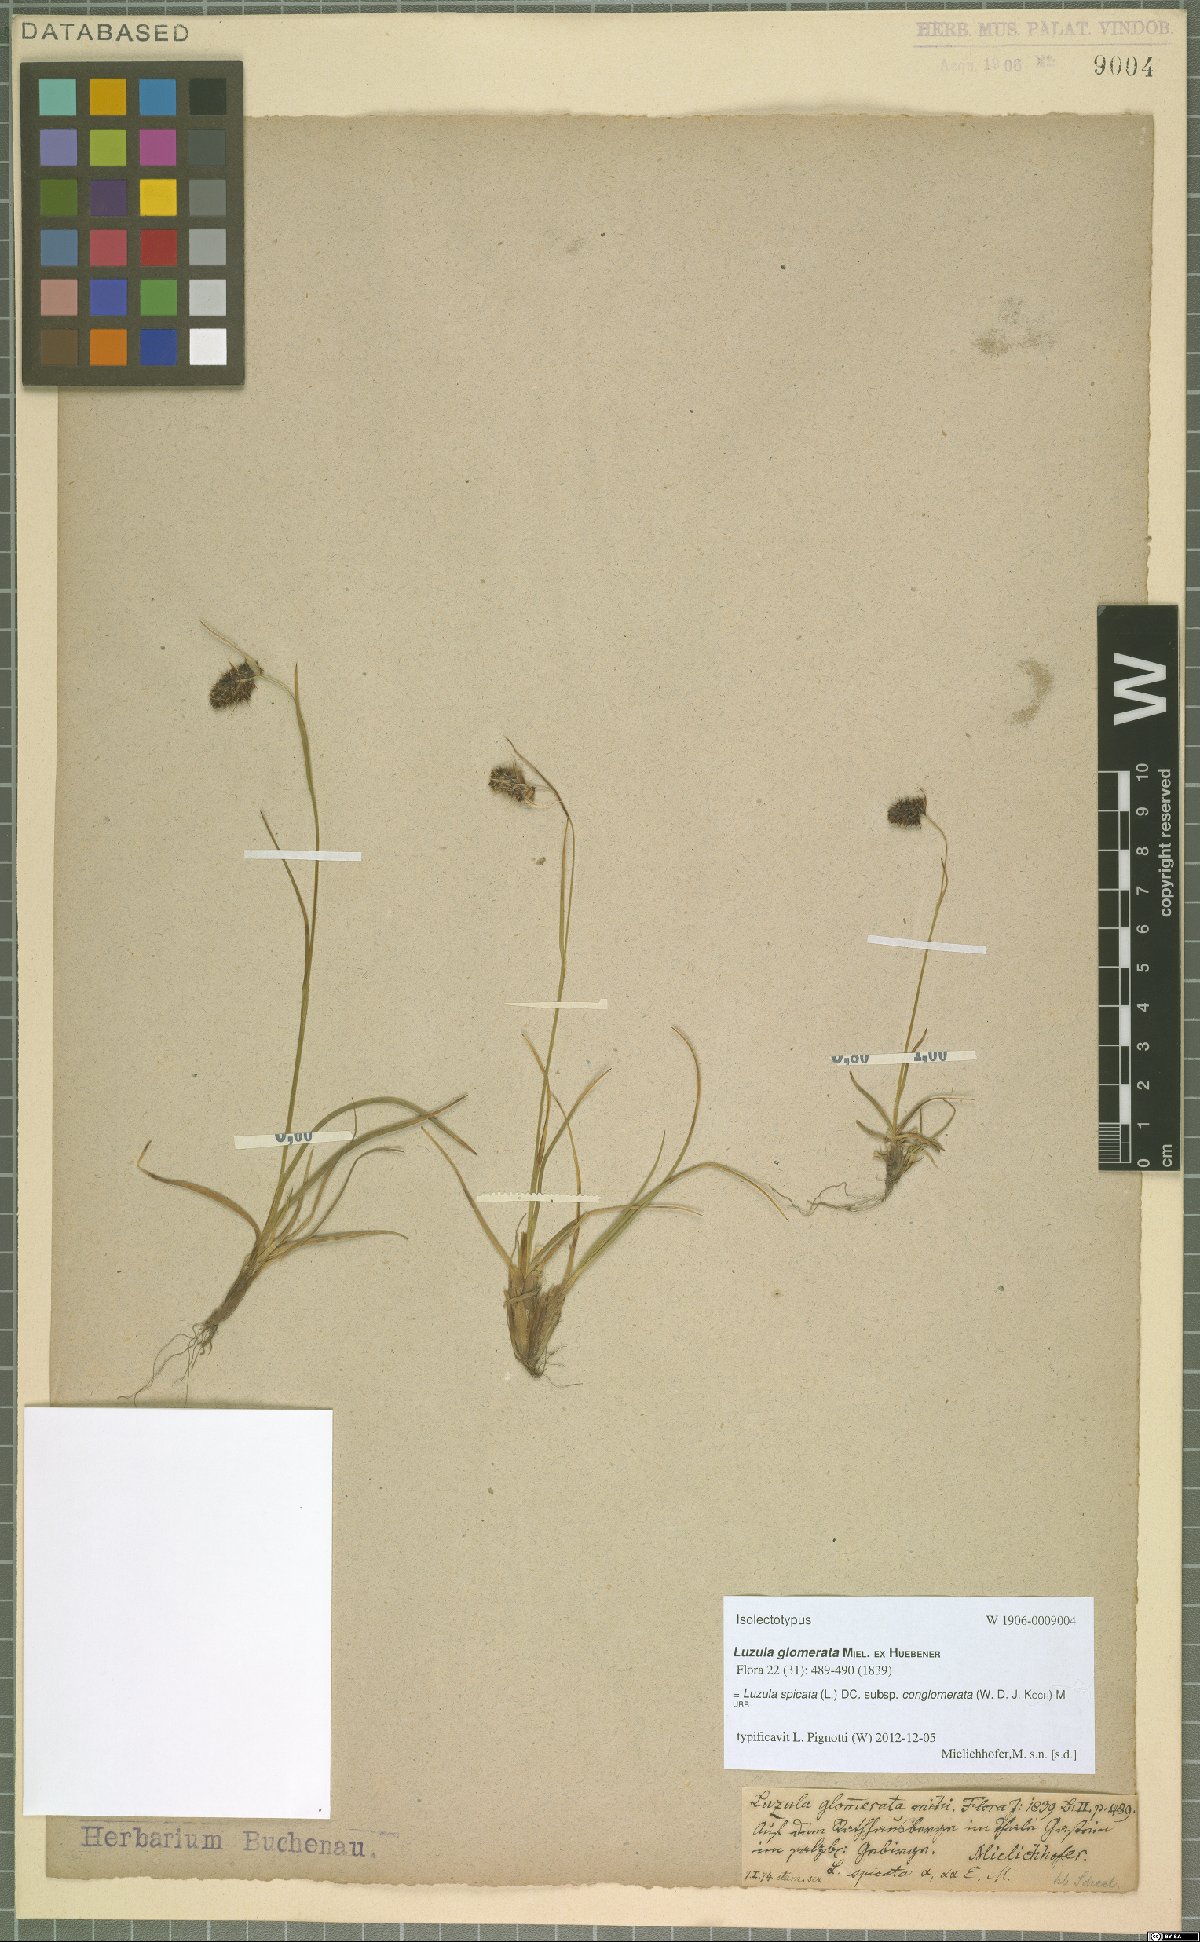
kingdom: Plantae
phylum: Tracheophyta
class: Liliopsida
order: Poales
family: Juncaceae
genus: Luzula
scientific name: Luzula spicata
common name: Spiked wood-rush
